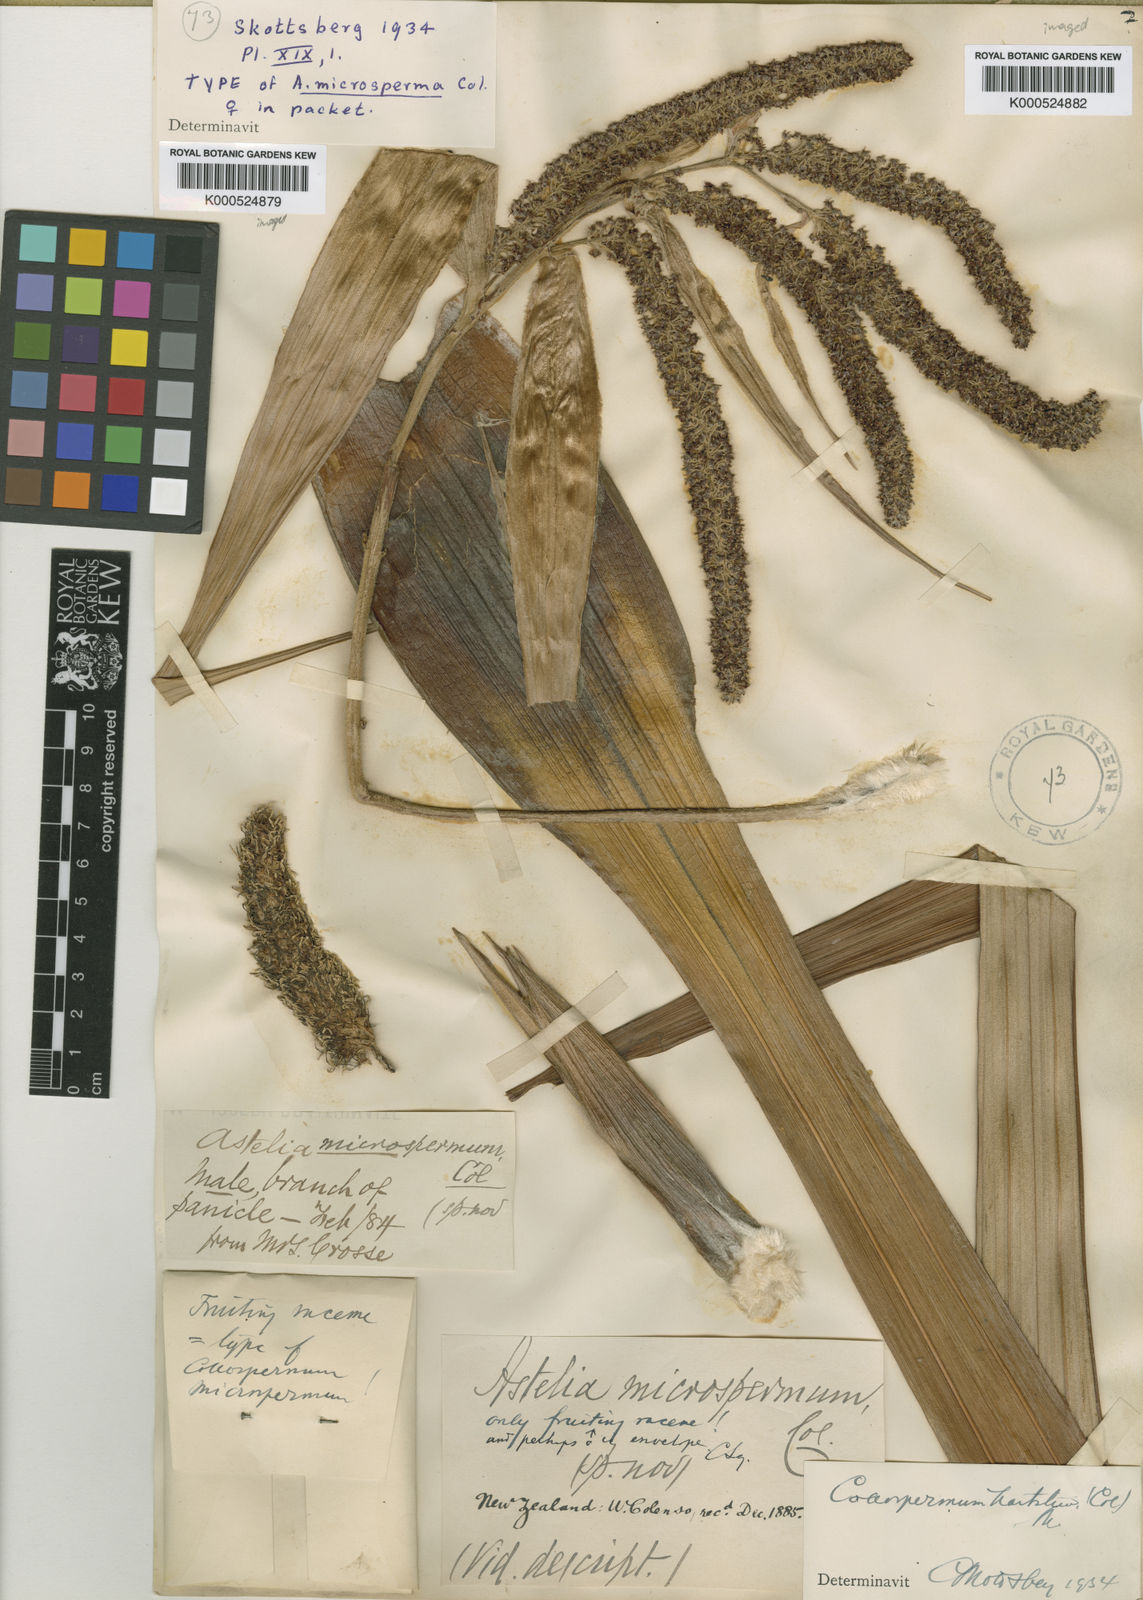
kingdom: Plantae
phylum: Tracheophyta
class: Liliopsida
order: Asparagales
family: Asteliaceae
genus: Astelia
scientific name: Astelia microsperma
